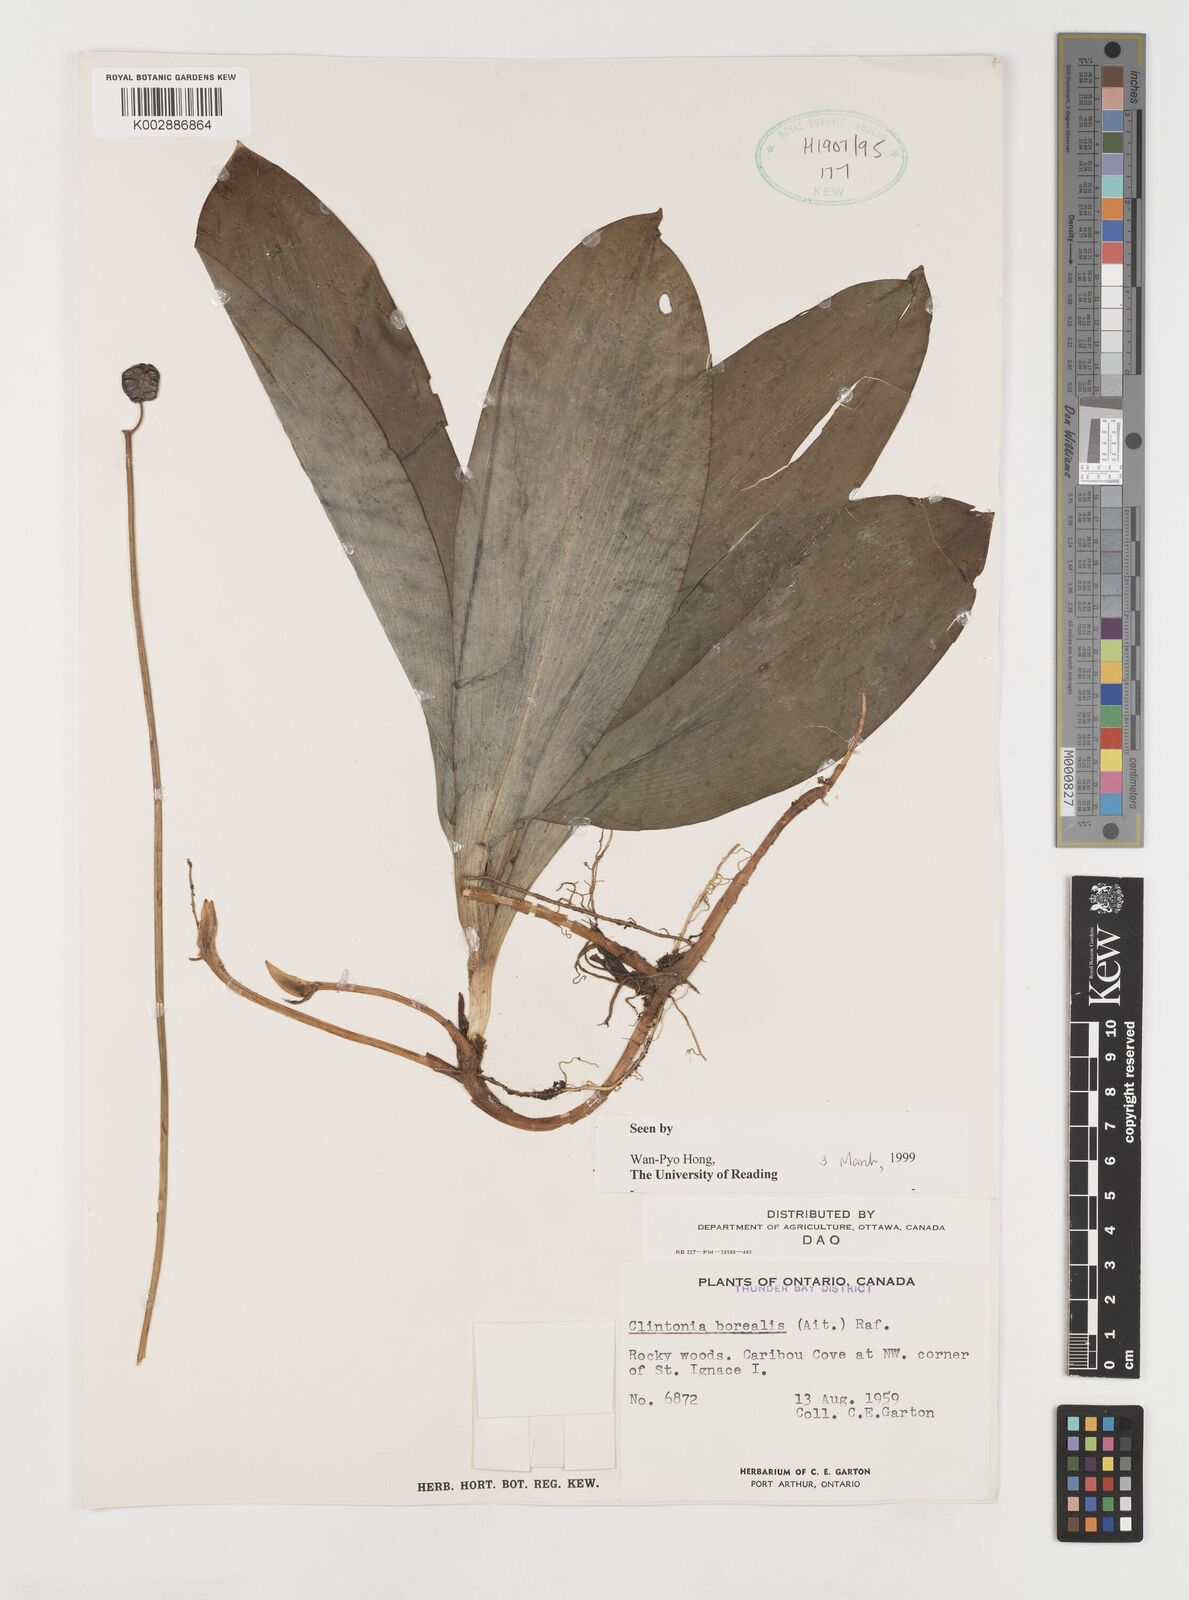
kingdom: Plantae
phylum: Tracheophyta
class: Liliopsida
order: Liliales
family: Liliaceae
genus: Clintonia
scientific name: Clintonia borealis
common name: Yellow clintonia
